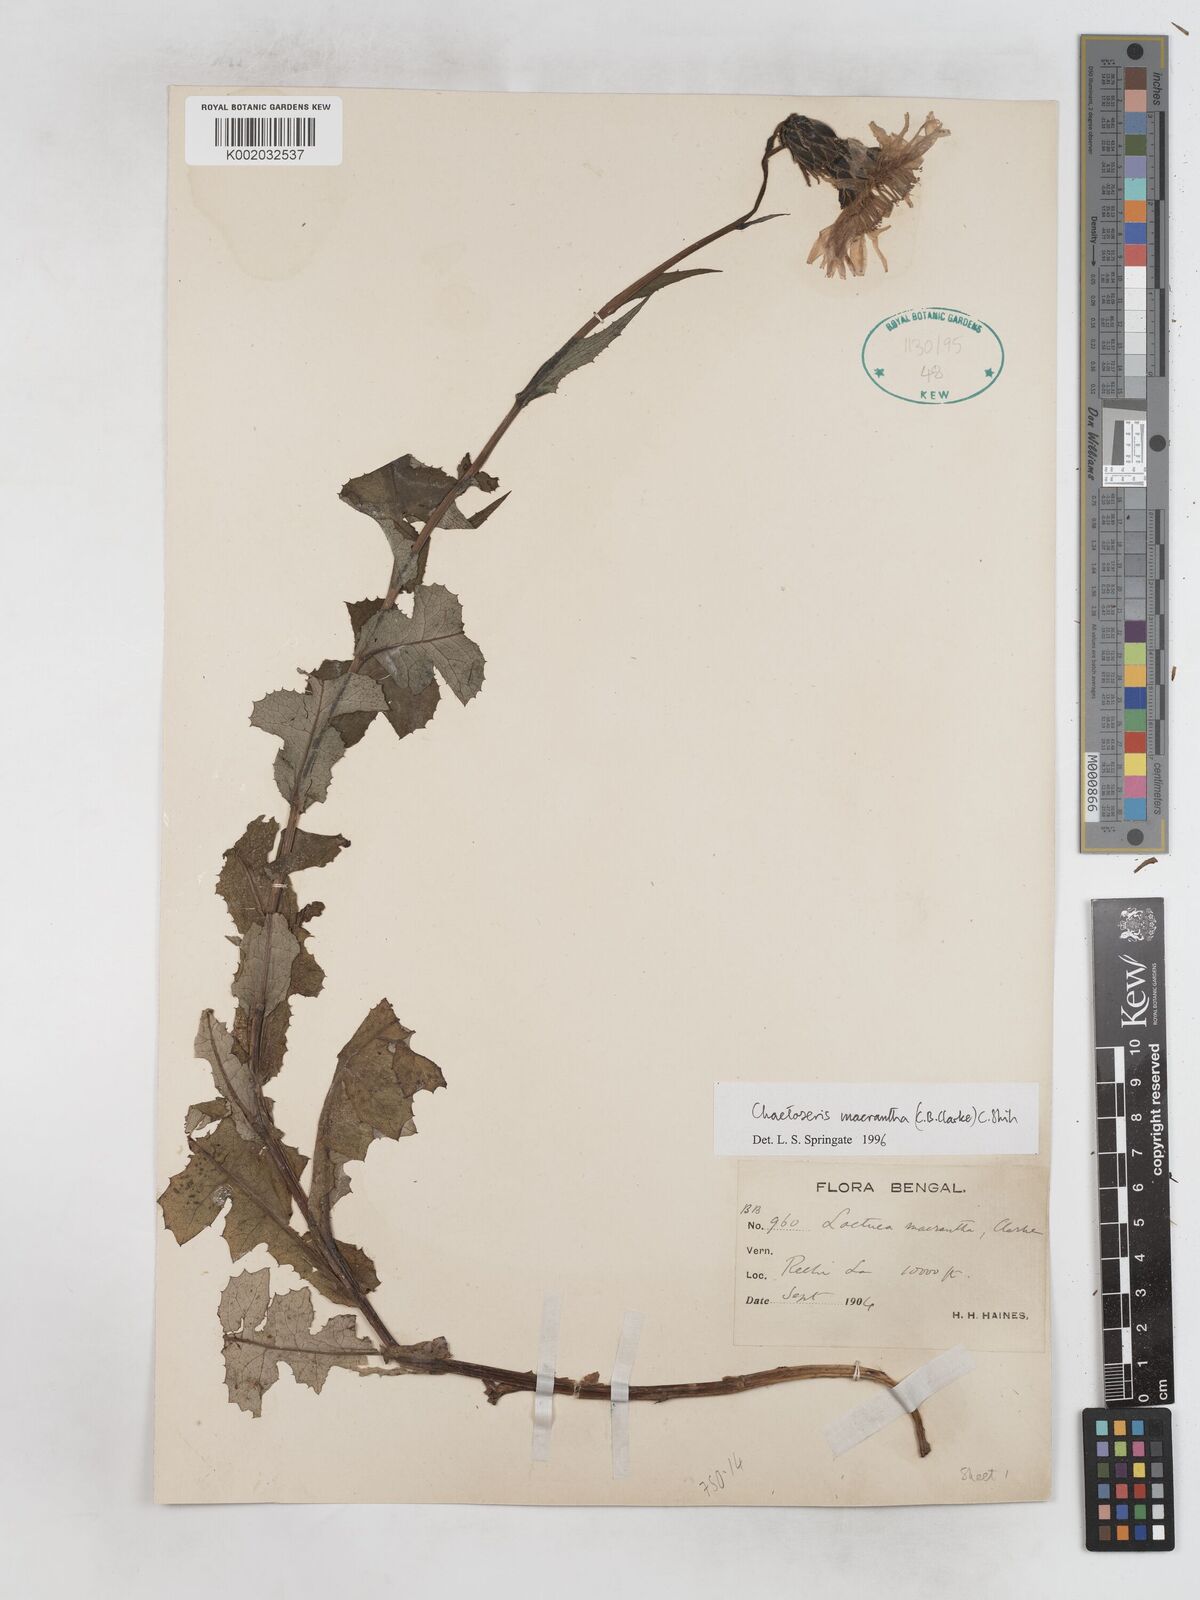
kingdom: Plantae
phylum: Tracheophyta
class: Magnoliopsida
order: Asterales
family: Asteraceae
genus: Melanoseris
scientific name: Melanoseris macrantha
